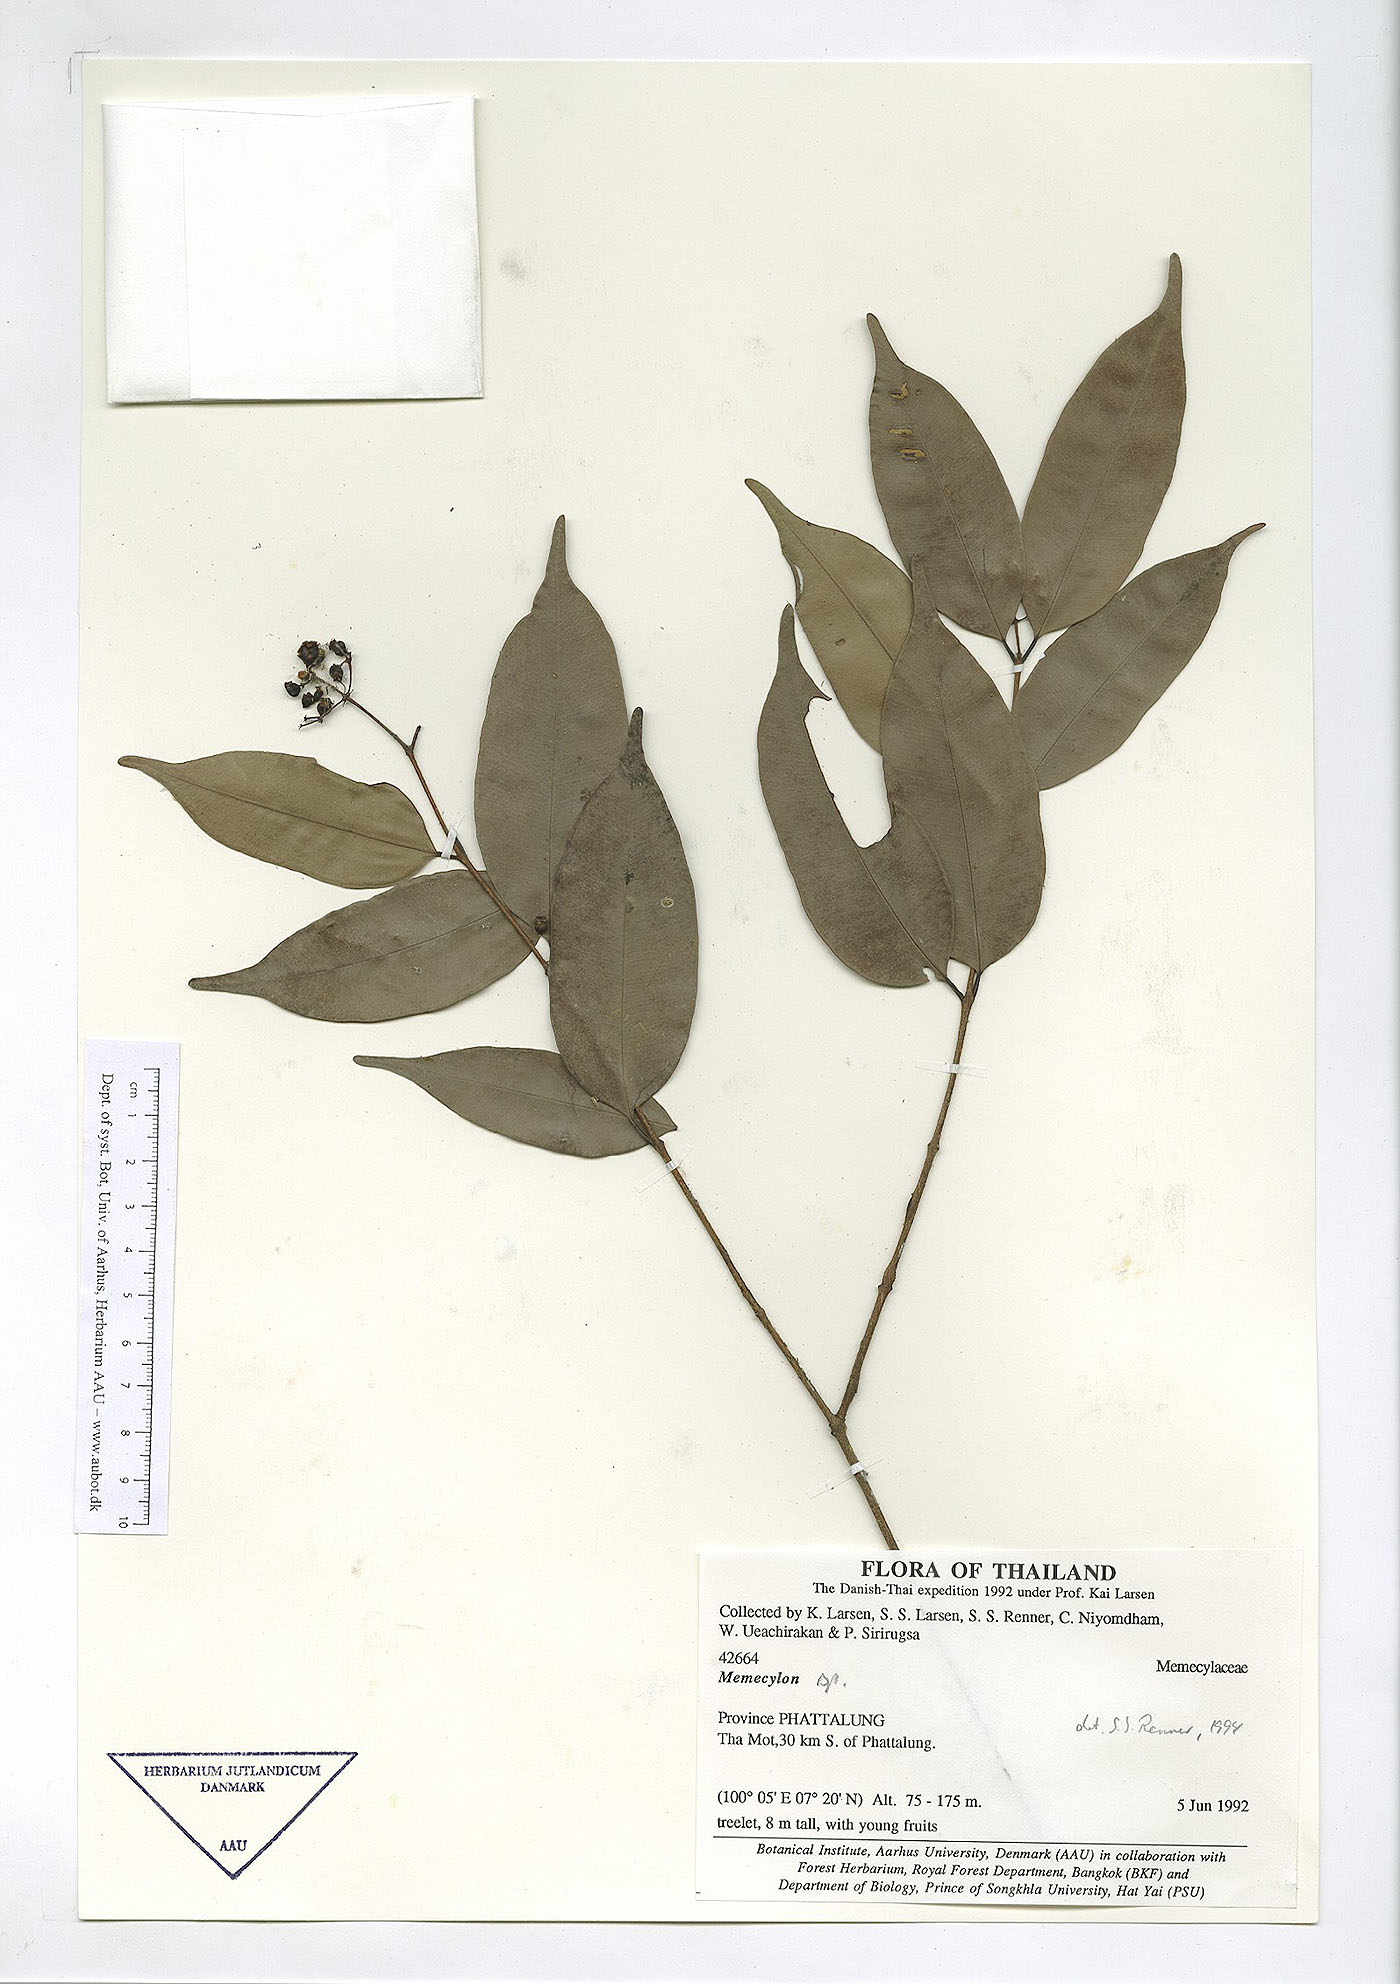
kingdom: Plantae
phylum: Tracheophyta
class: Magnoliopsida
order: Myrtales
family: Melastomataceae
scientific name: Melastomataceae
